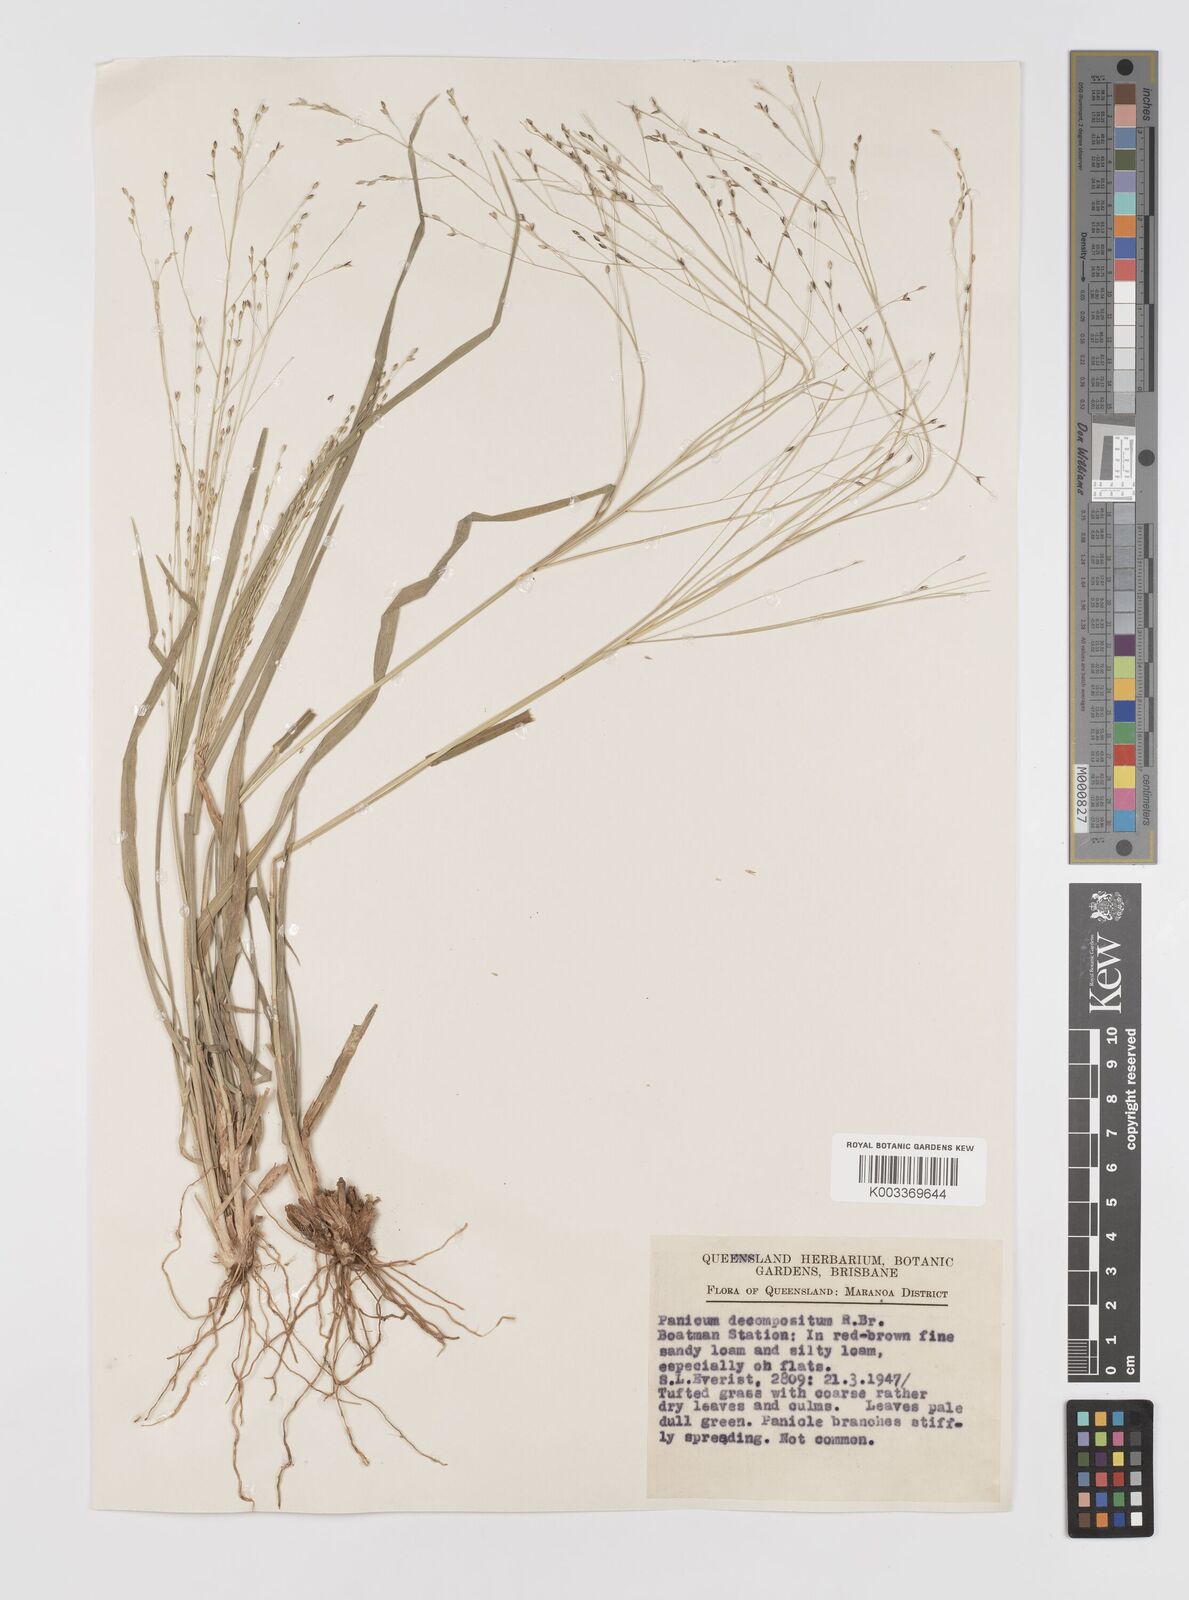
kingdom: Plantae
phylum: Tracheophyta
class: Liliopsida
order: Poales
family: Poaceae
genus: Panicum
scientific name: Panicum decompositum
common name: Australian millet
